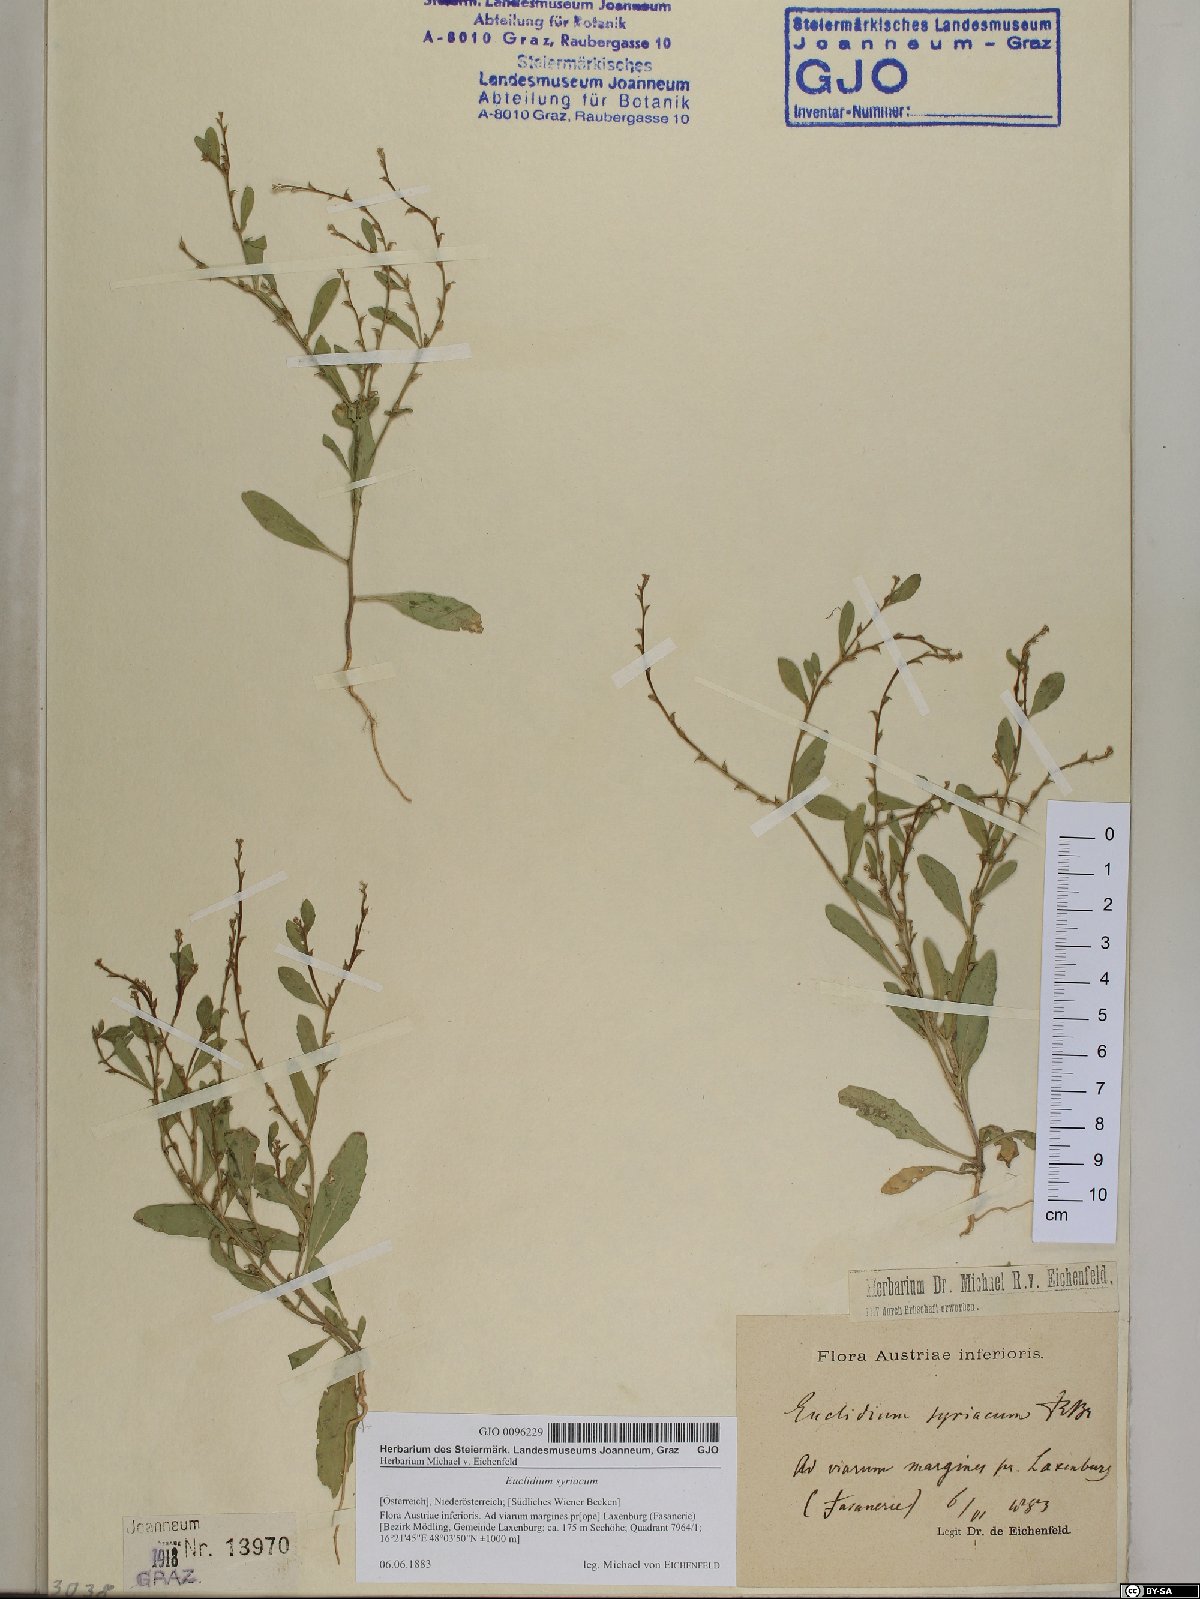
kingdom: Plantae
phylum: Tracheophyta
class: Magnoliopsida
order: Brassicales
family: Brassicaceae
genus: Euclidium
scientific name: Euclidium syriacum
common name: Syrian mustard
